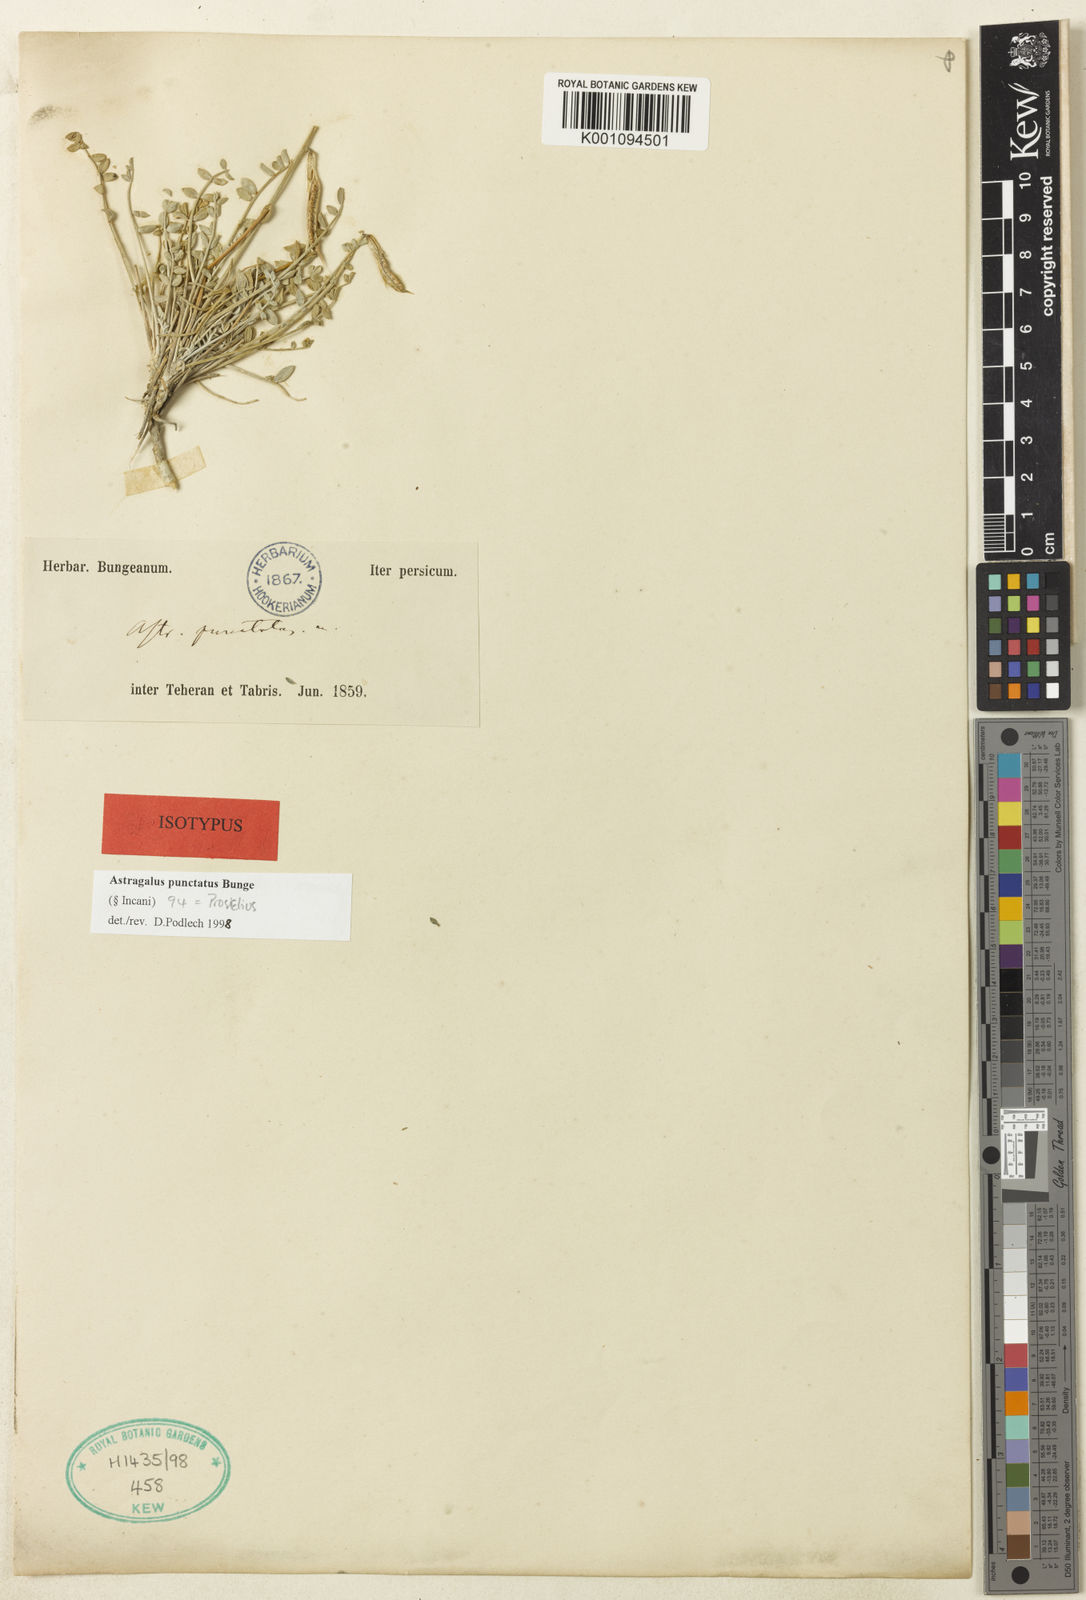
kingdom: Plantae
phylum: Tracheophyta
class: Magnoliopsida
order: Fabales
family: Fabaceae
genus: Astragalus
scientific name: Astragalus
